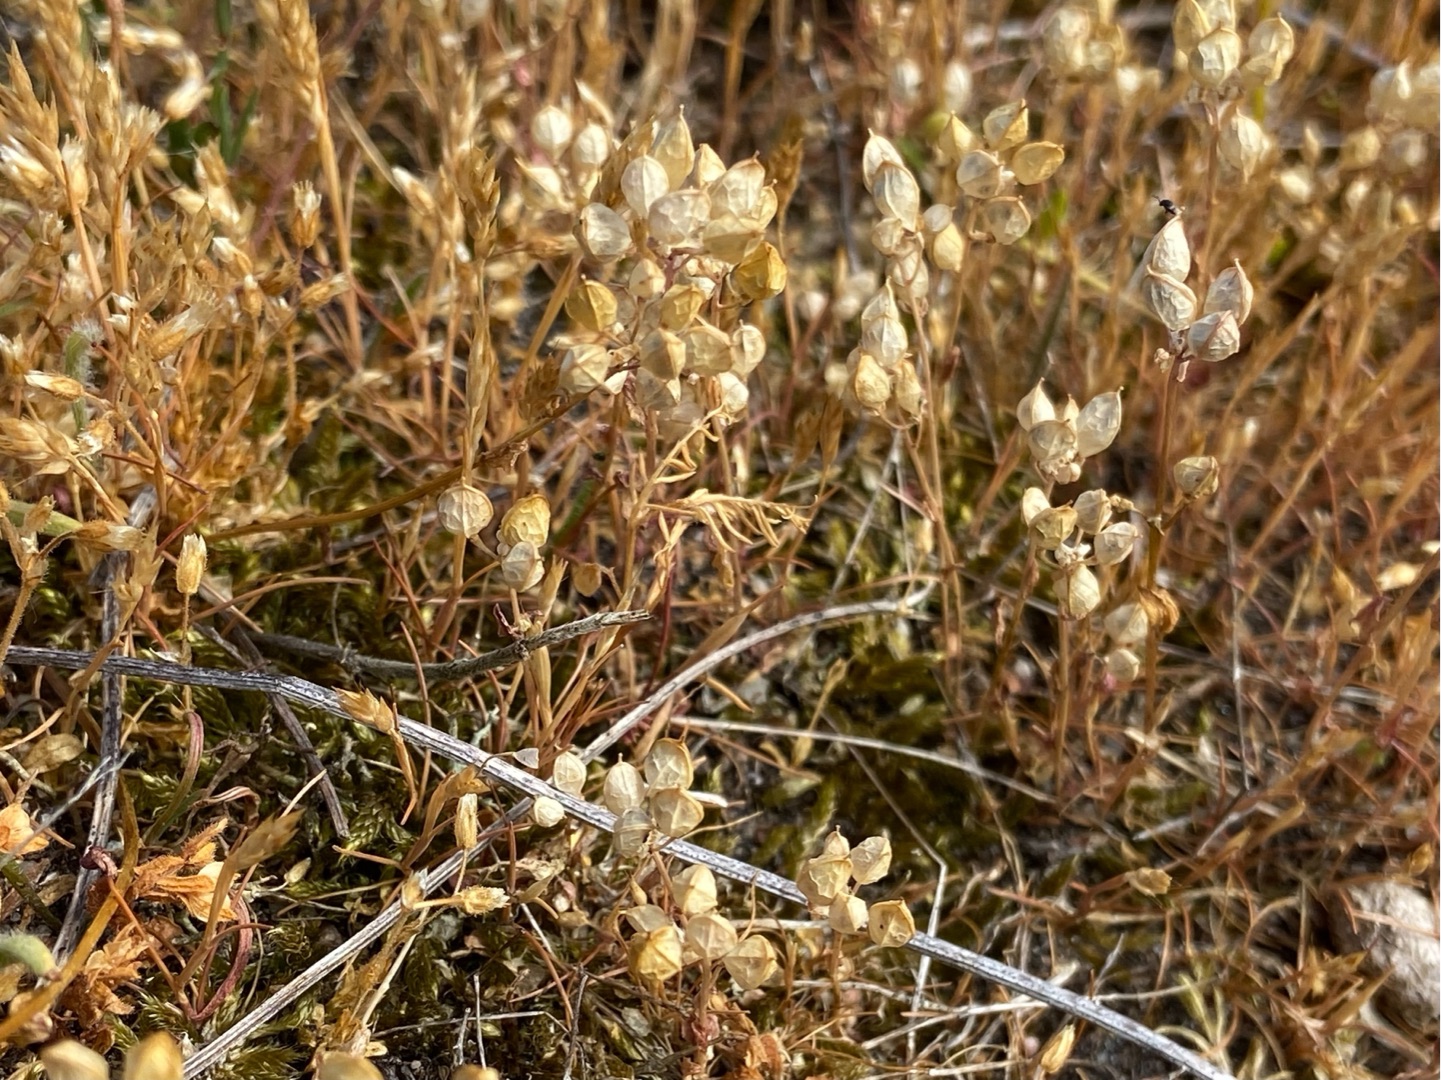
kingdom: Plantae
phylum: Tracheophyta
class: Liliopsida
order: Poales
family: Poaceae
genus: Aira
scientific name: Aira praecox
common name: Tidlig dværgbunke
